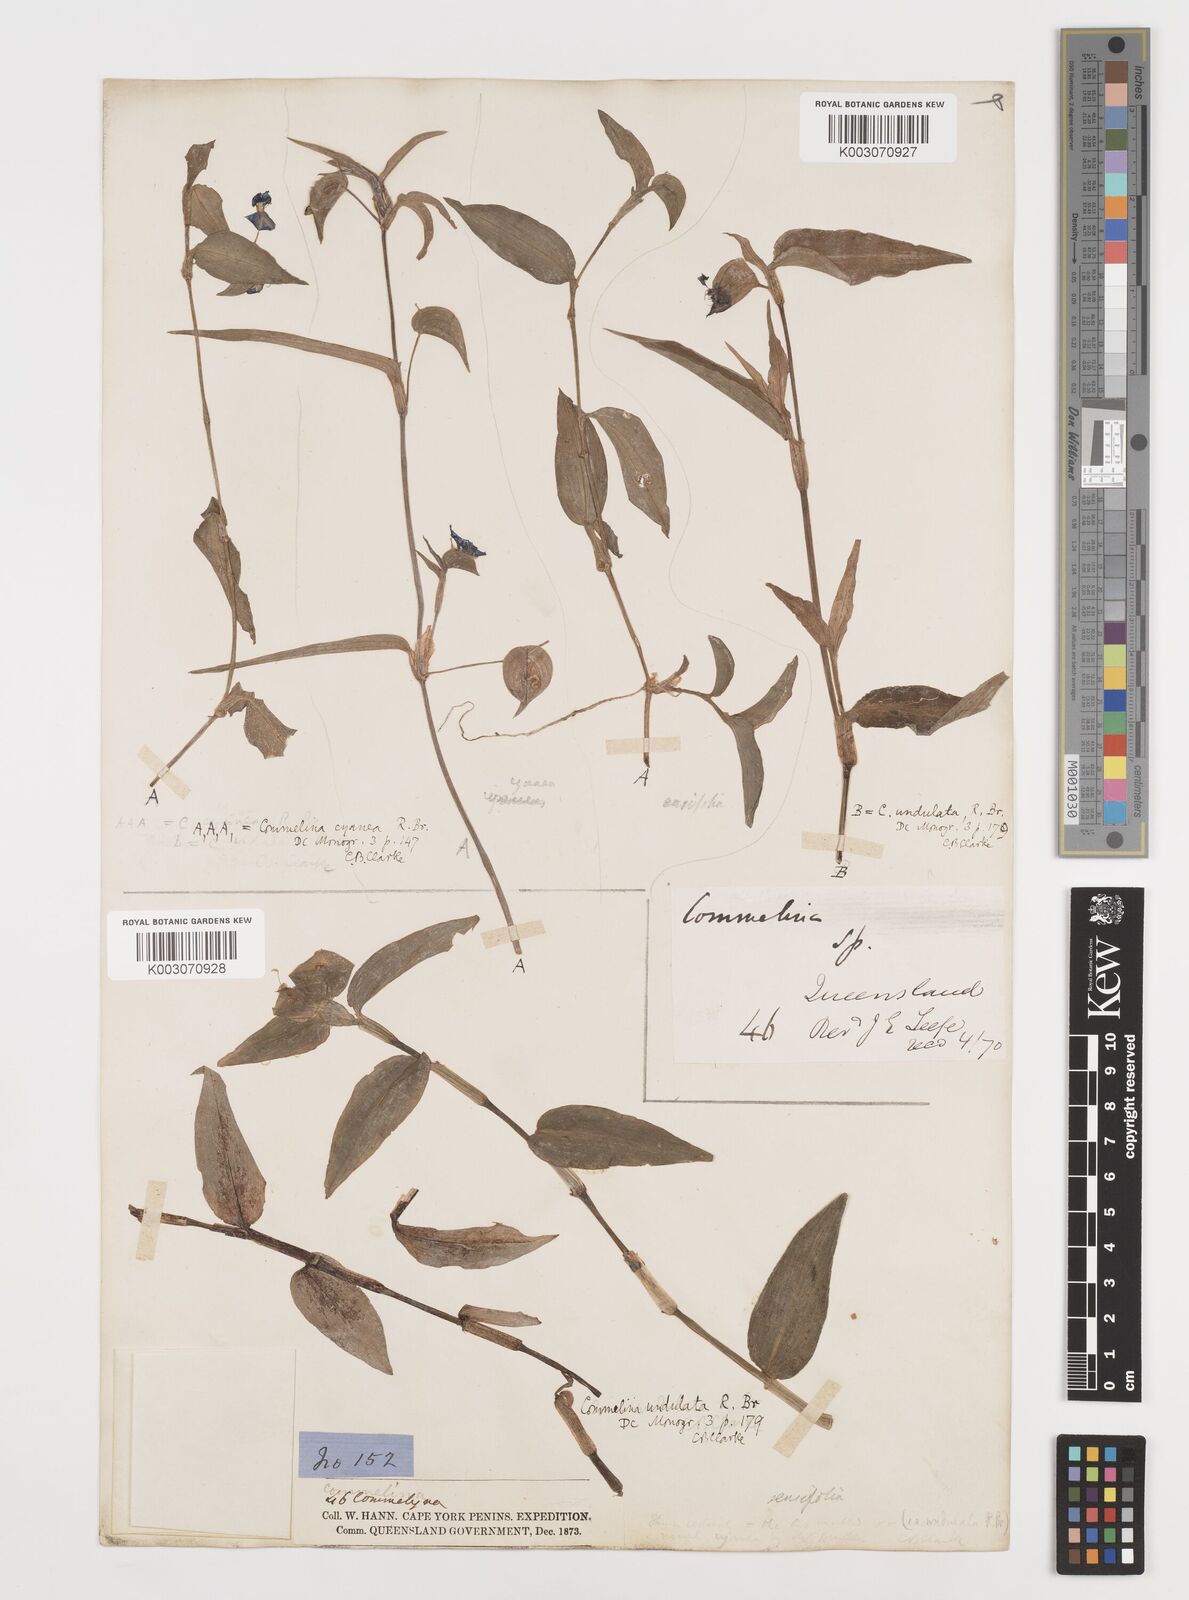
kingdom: Plantae
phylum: Tracheophyta
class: Liliopsida
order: Commelinales
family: Commelinaceae
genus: Commelina
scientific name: Commelina ensifolia
